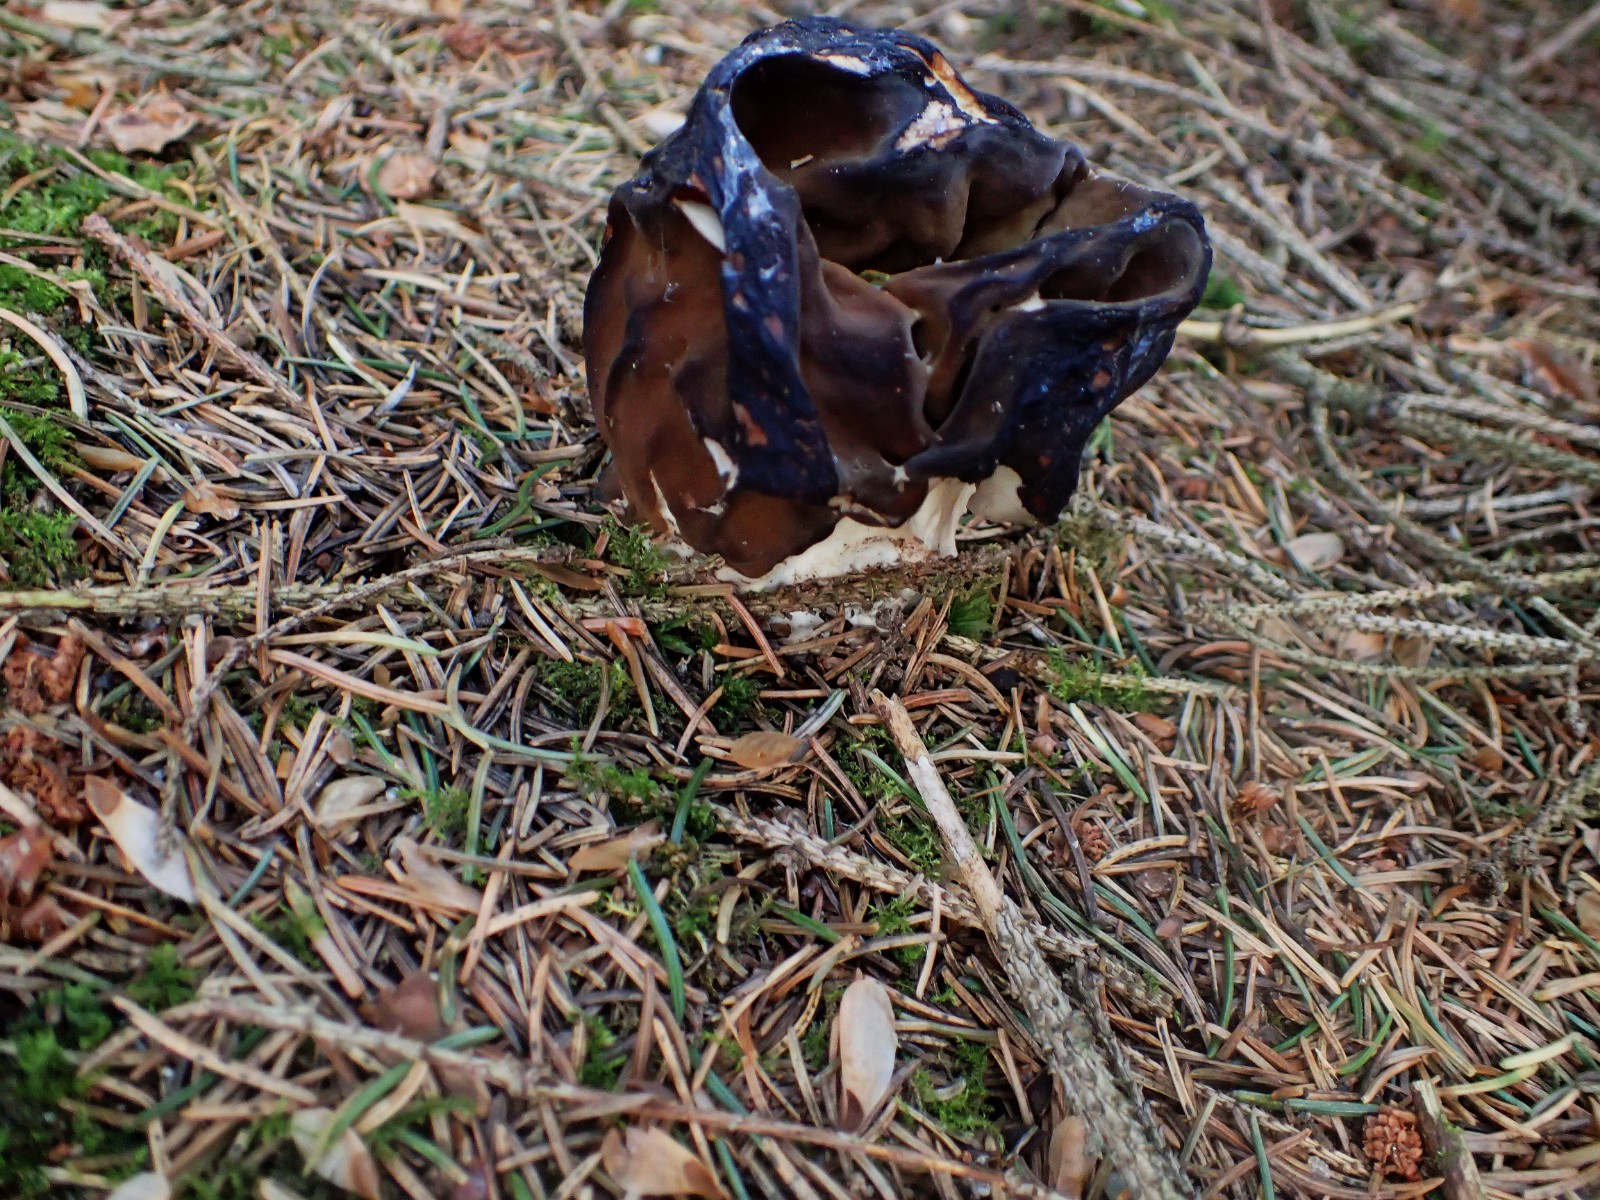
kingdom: Fungi
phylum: Ascomycota
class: Pezizomycetes
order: Pezizales
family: Discinaceae
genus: Gyromitra
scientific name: Gyromitra gigas
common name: kæmpe-stenmorkel
